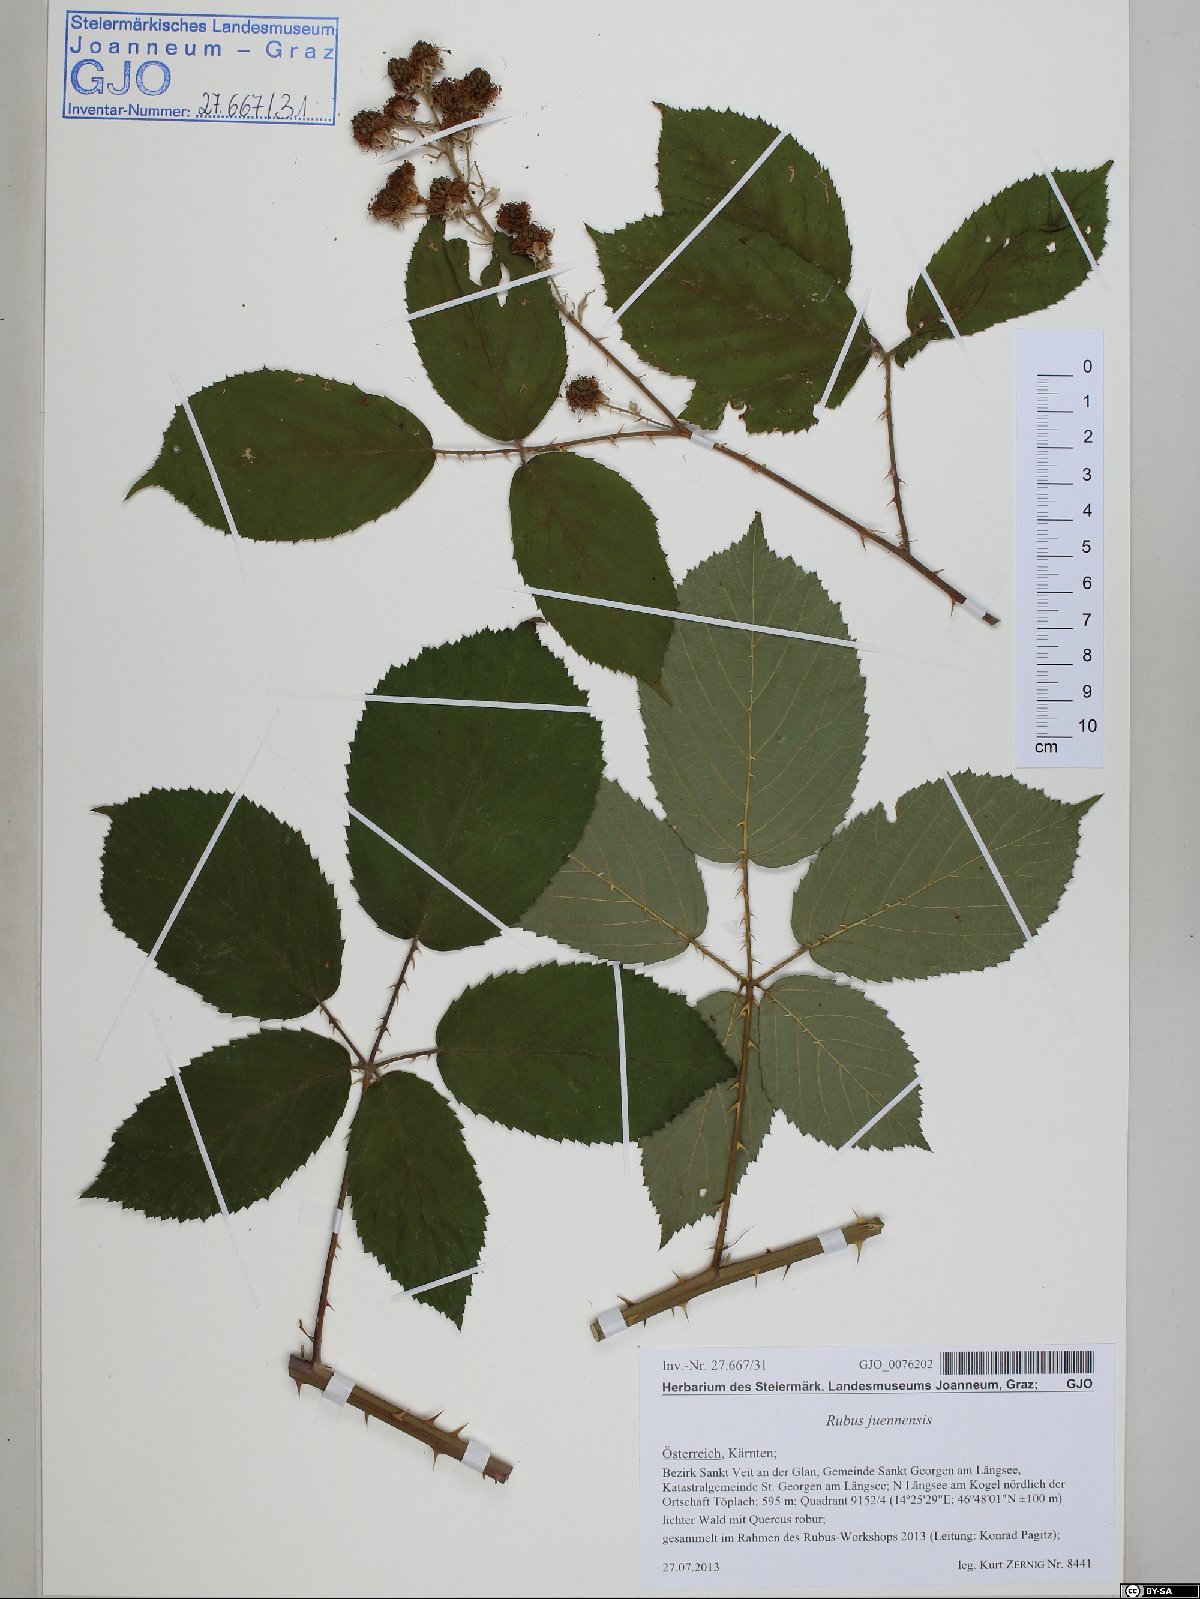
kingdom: Plantae
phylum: Tracheophyta
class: Magnoliopsida
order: Rosales
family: Rosaceae
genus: Rubus
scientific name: Rubus juennensis
